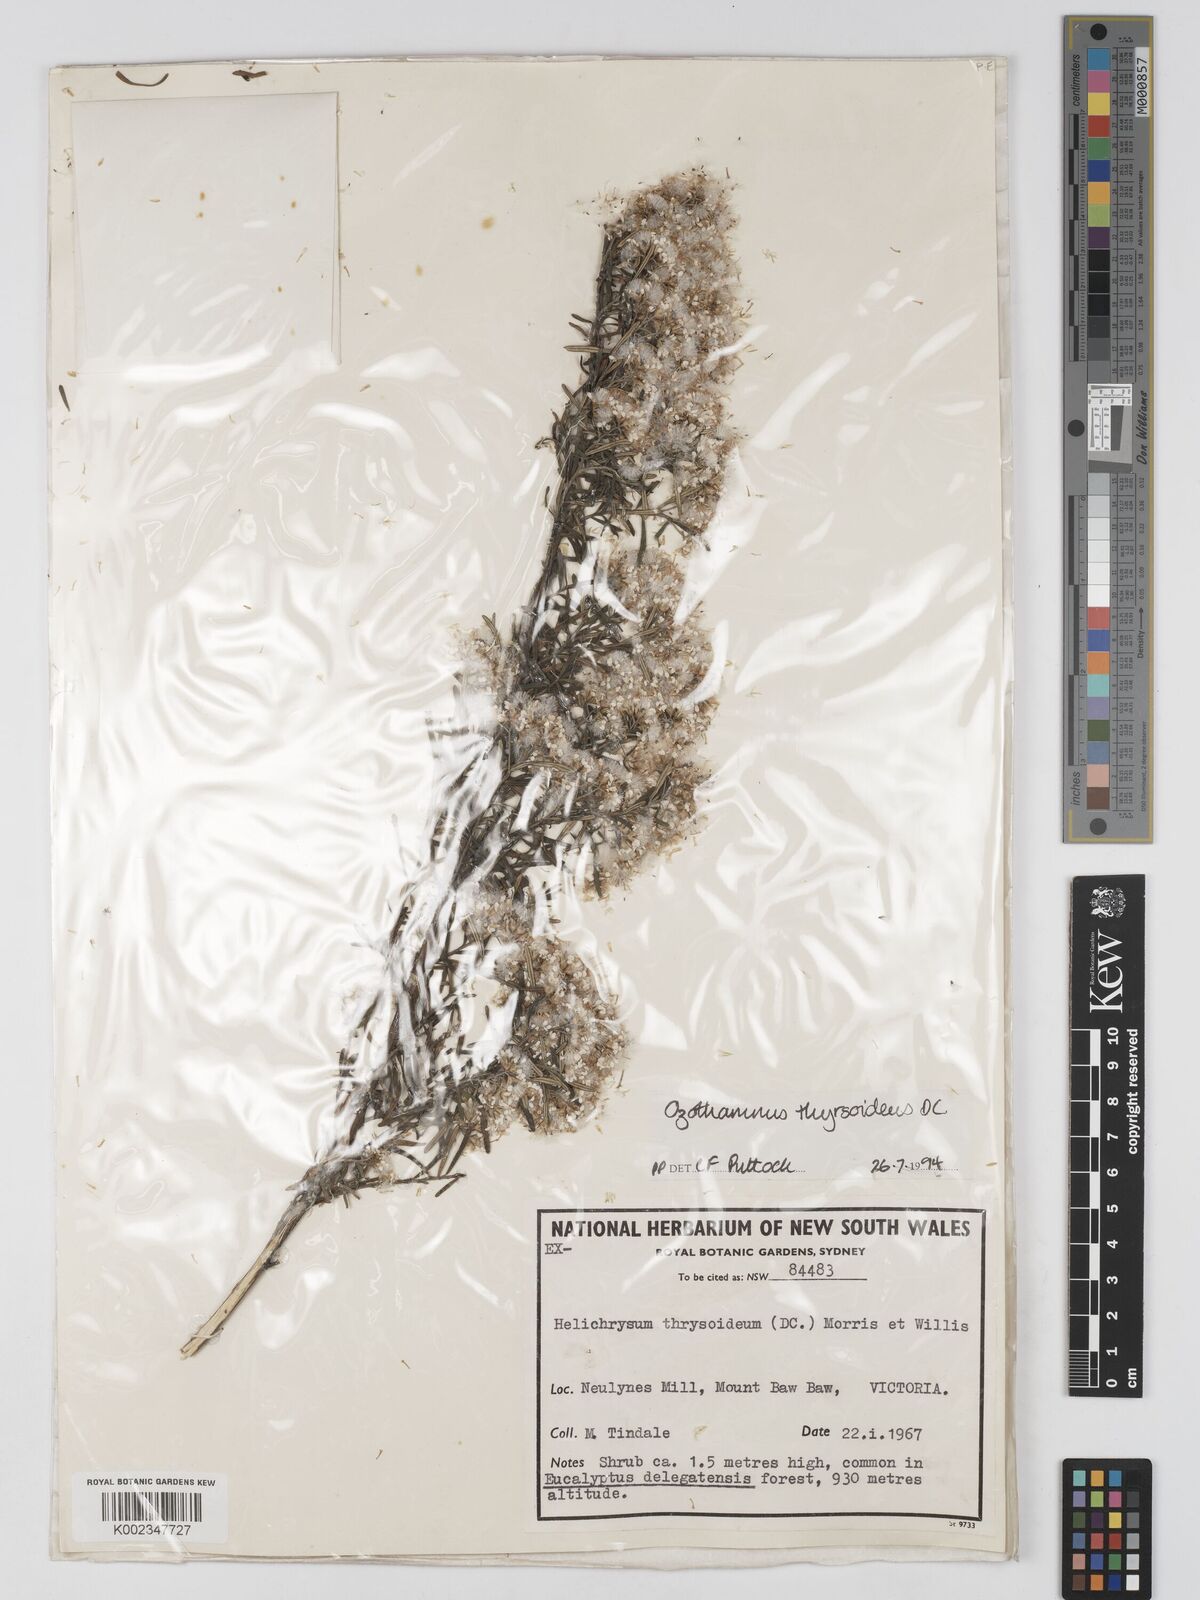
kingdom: Plantae
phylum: Tracheophyta
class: Magnoliopsida
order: Asterales
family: Asteraceae
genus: Ozothamnus
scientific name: Ozothamnus thyrsoideus
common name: Snow-in-summer
